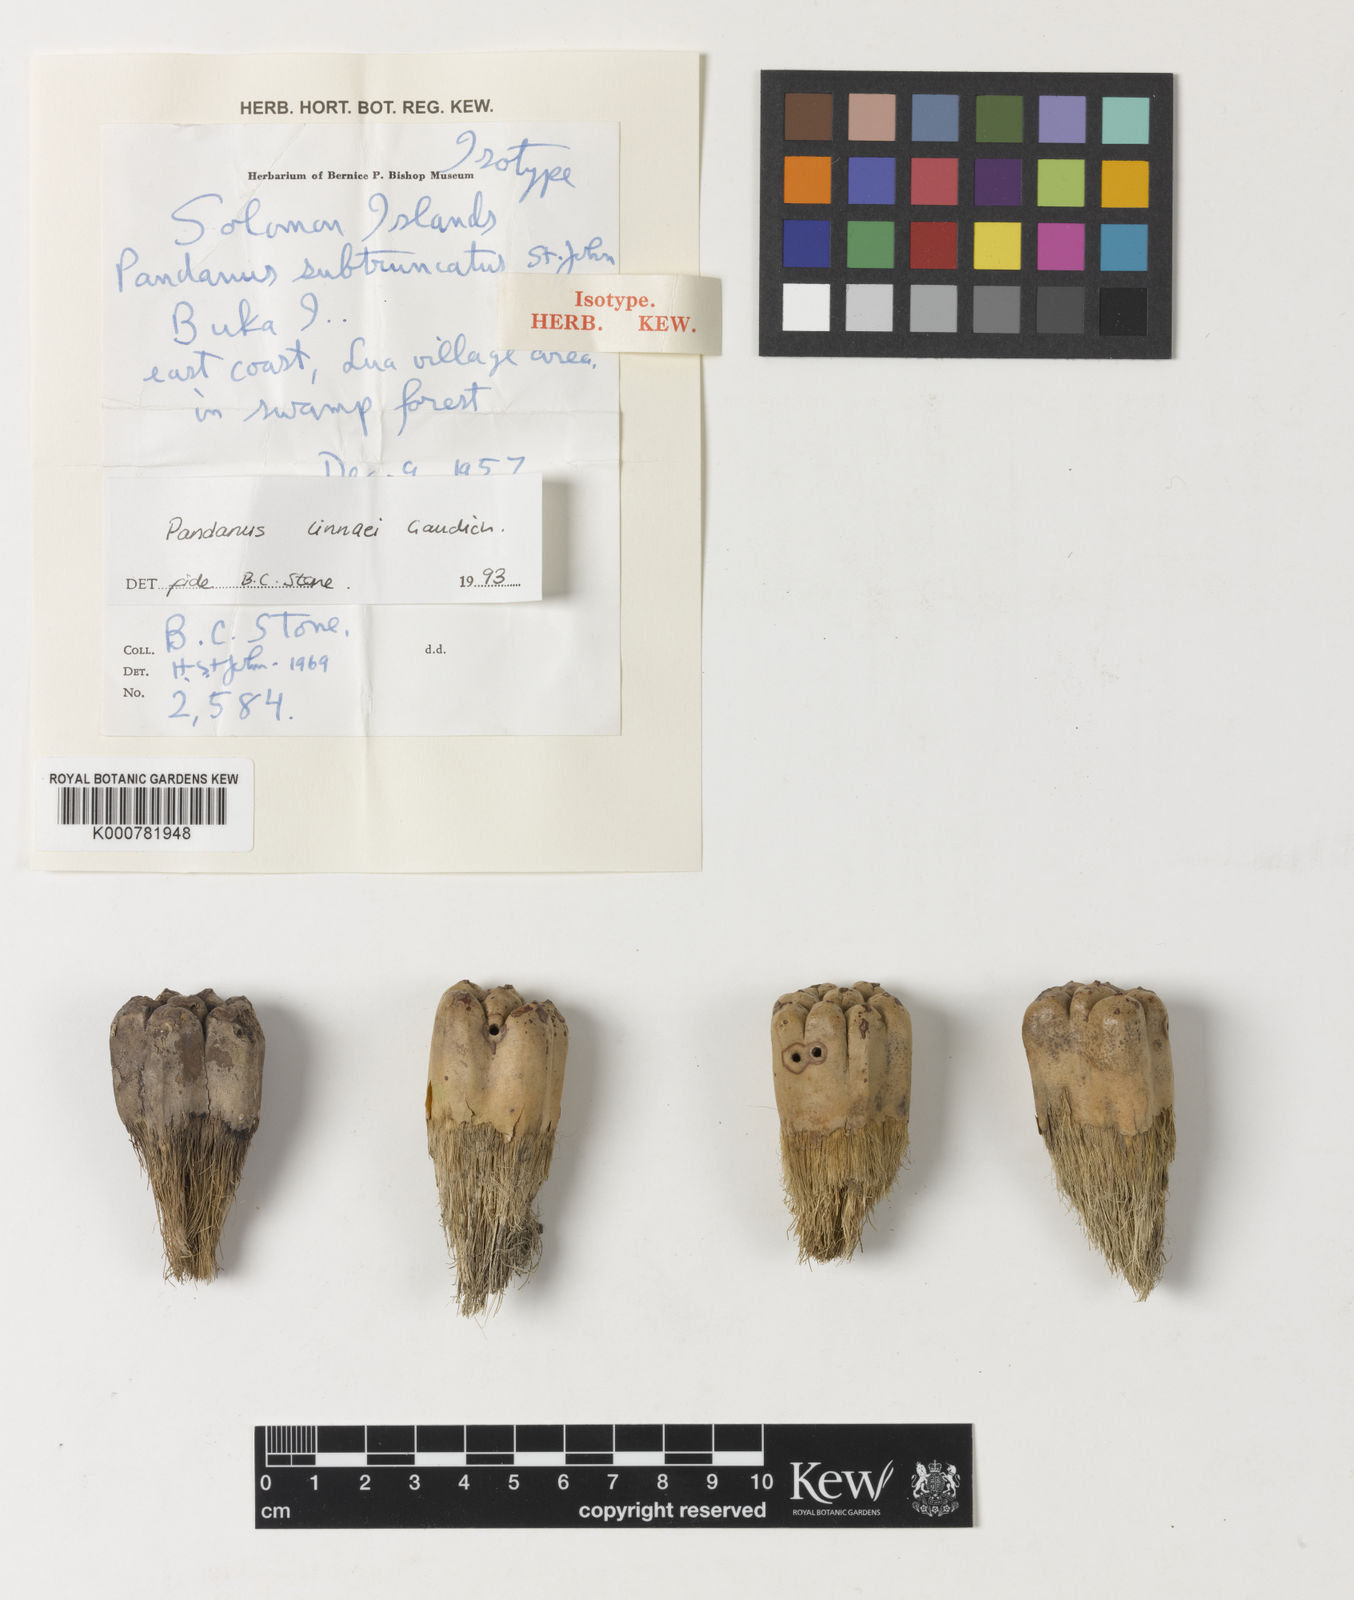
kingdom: Plantae
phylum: Tracheophyta
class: Liliopsida
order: Pandanales
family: Pandanaceae
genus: Pandanus
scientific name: Pandanus odorifer
